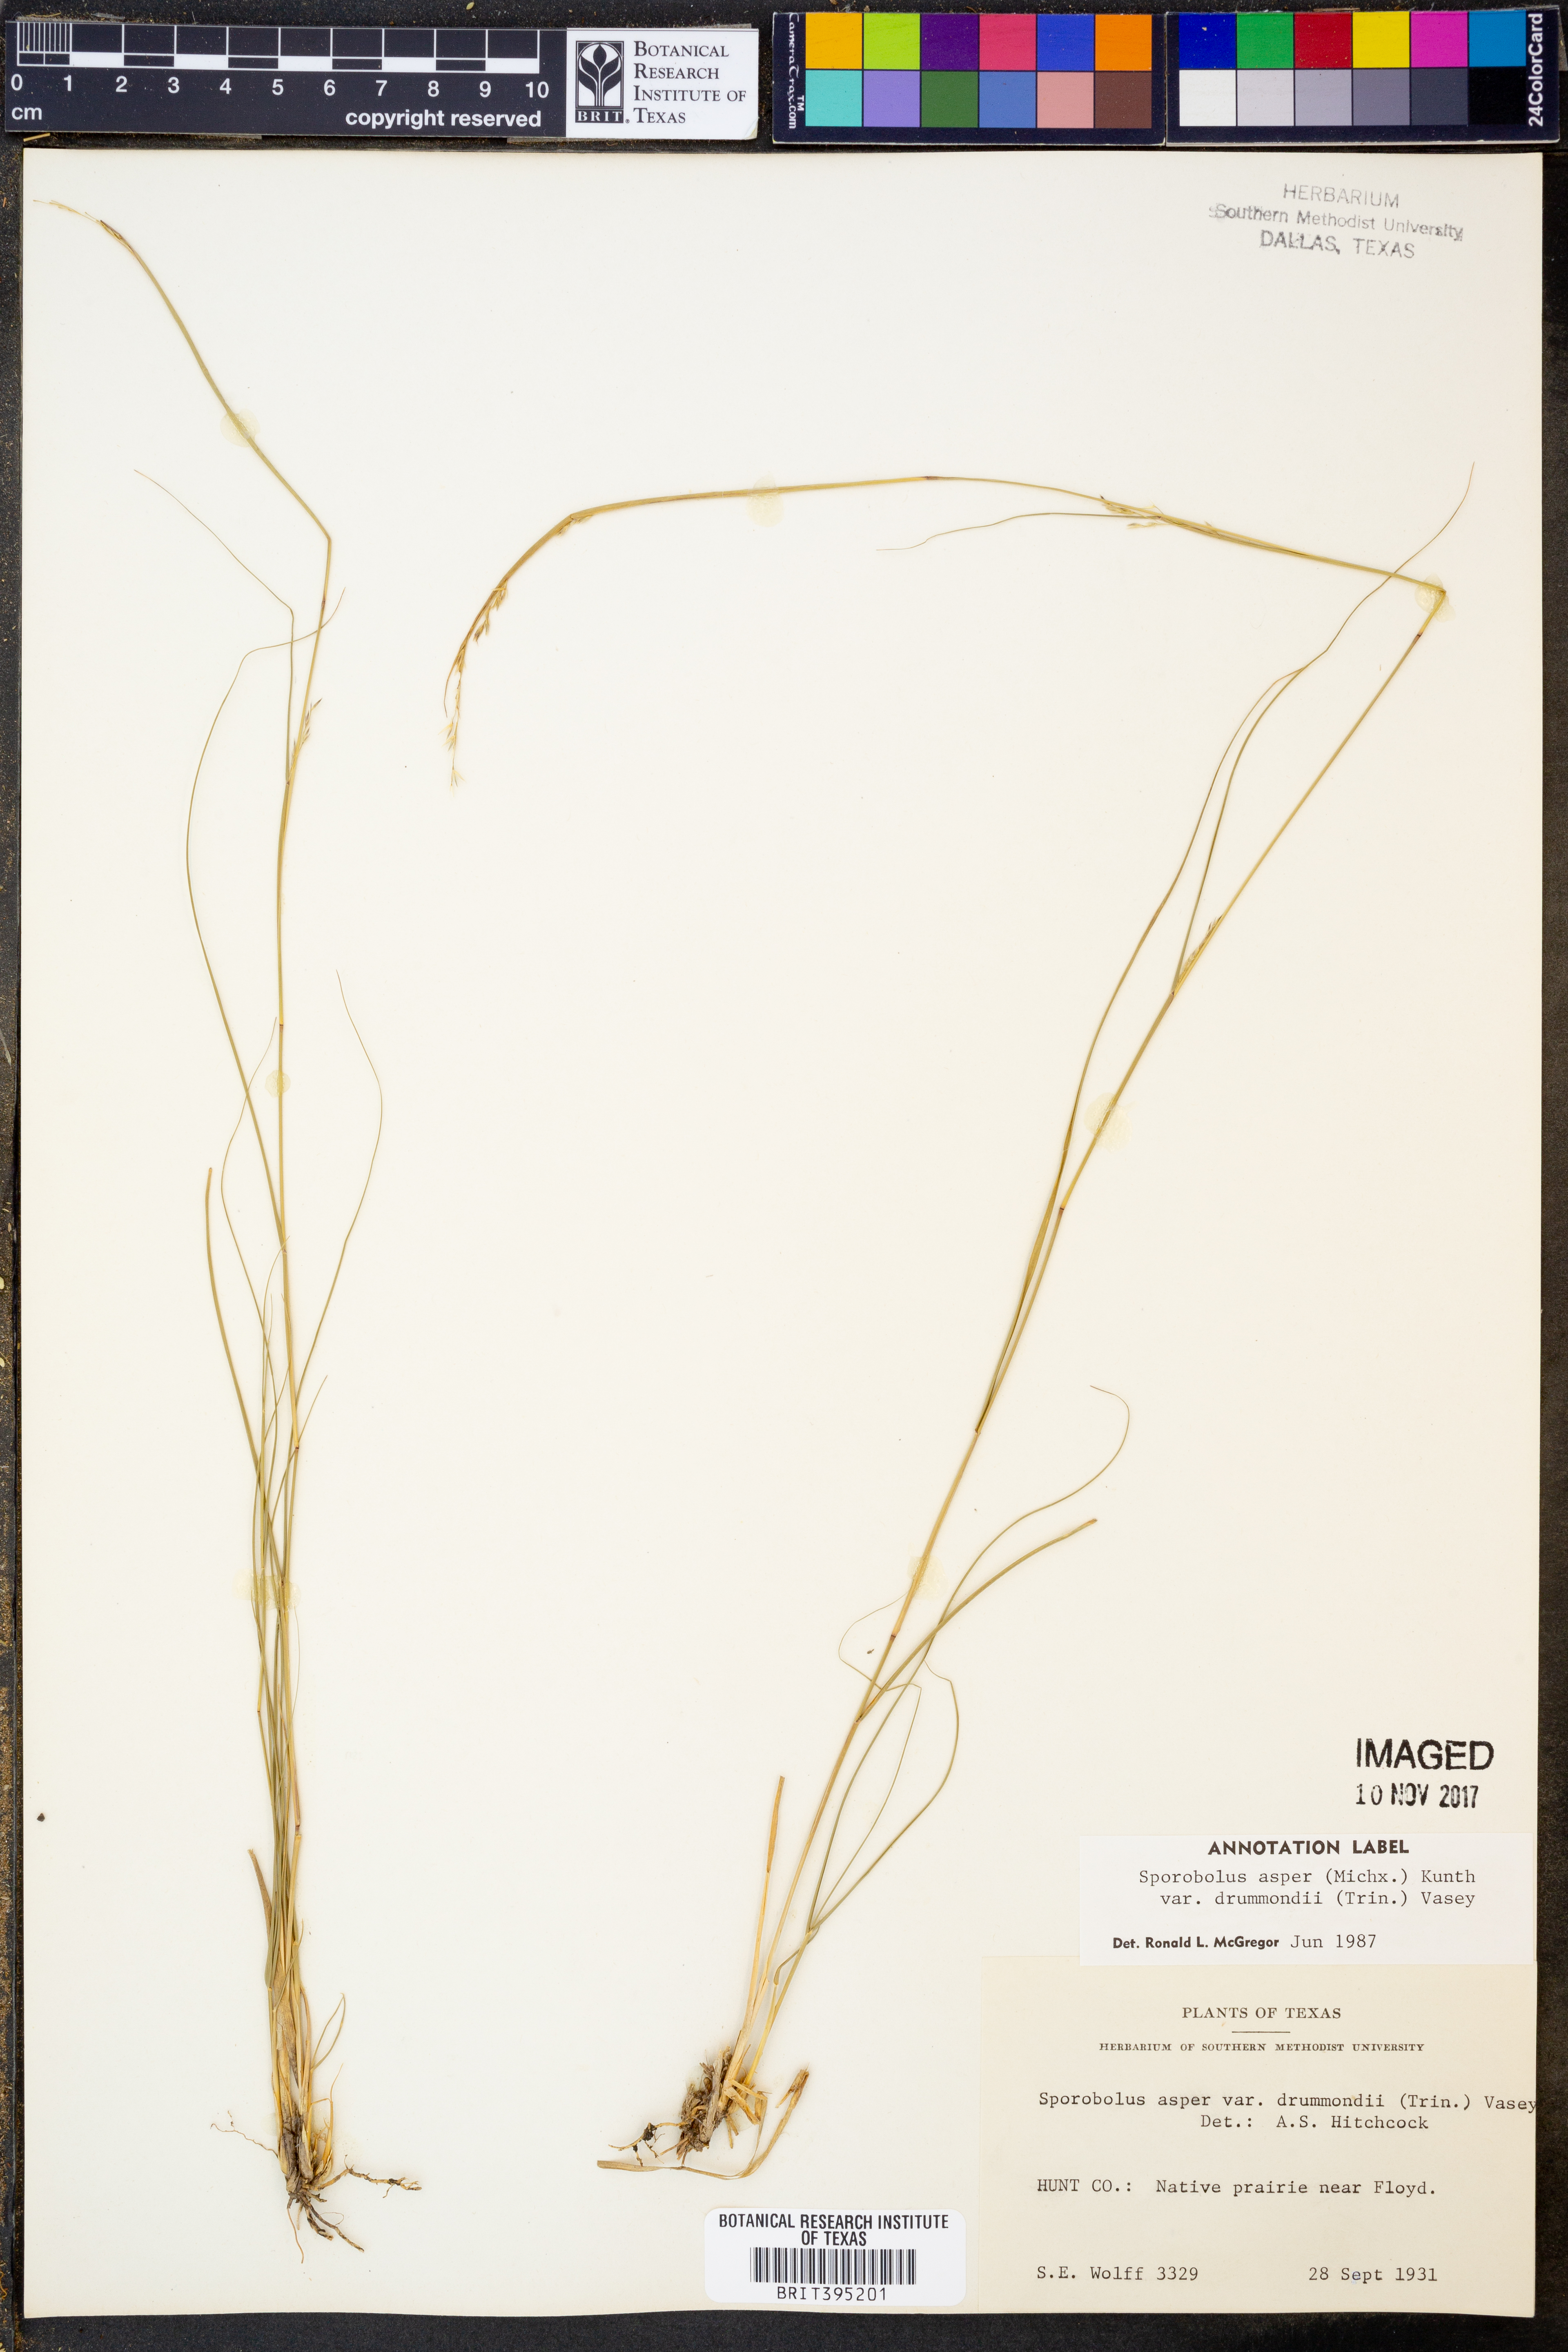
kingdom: Plantae
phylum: Tracheophyta
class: Liliopsida
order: Poales
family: Poaceae
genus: Sporobolus
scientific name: Sporobolus compositus
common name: Rough dropseed
